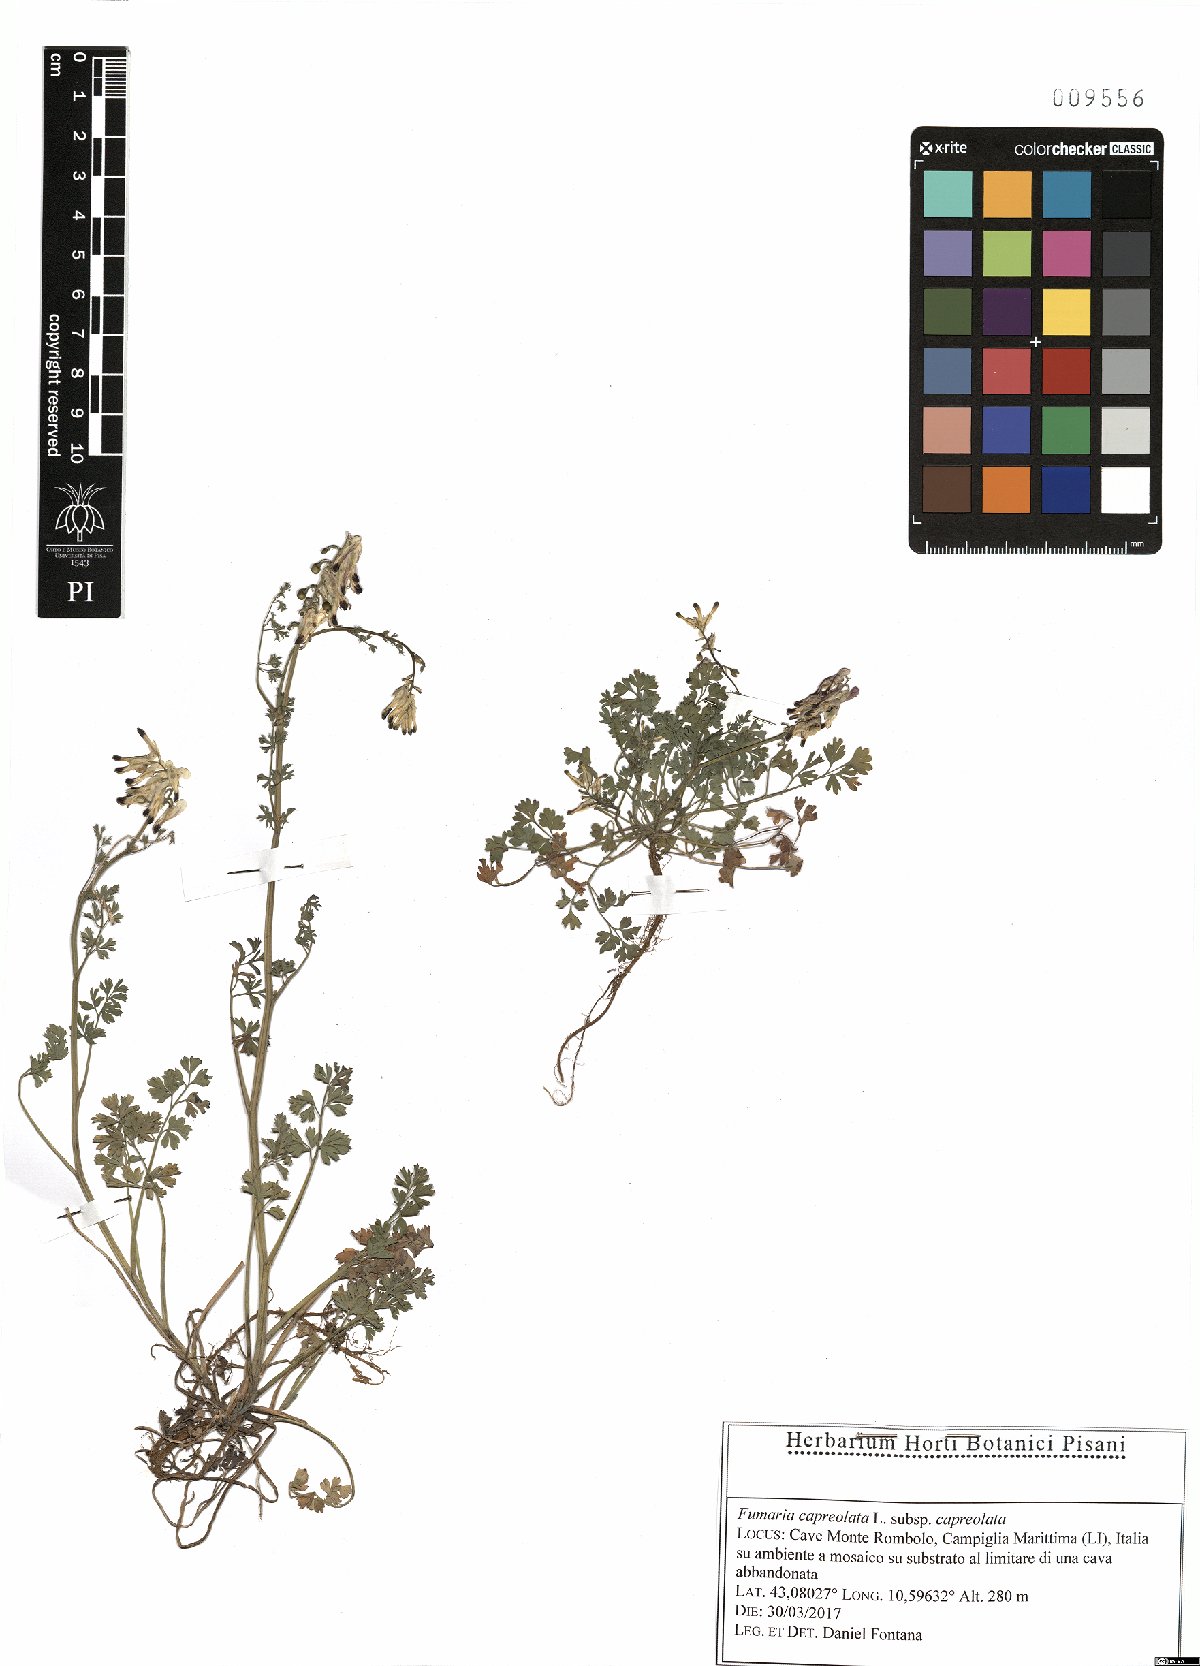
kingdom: Plantae
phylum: Tracheophyta
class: Magnoliopsida
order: Ranunculales
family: Papaveraceae
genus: Fumaria
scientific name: Fumaria capreolata
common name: White ramping-fumitory
